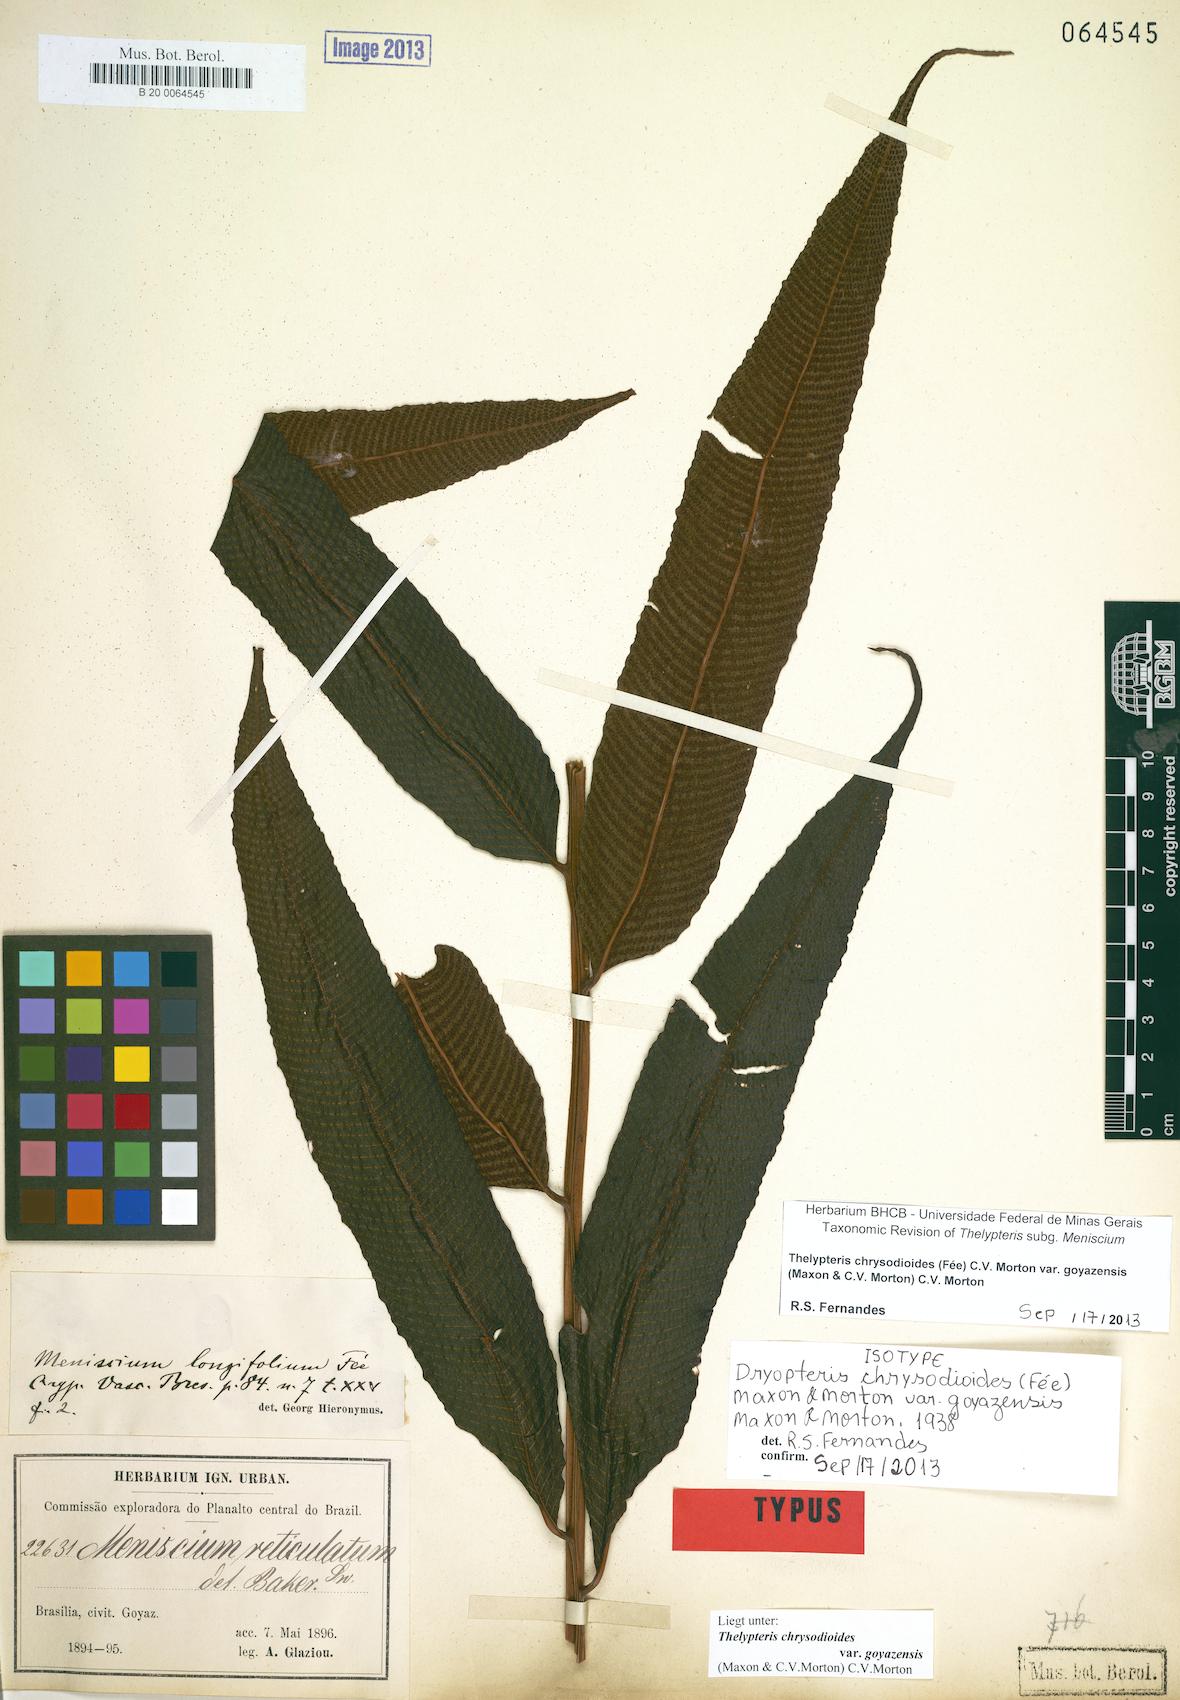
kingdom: Plantae
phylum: Tracheophyta
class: Polypodiopsida
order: Polypodiales
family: Thelypteridaceae
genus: Meniscium
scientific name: Meniscium chrysodioides
